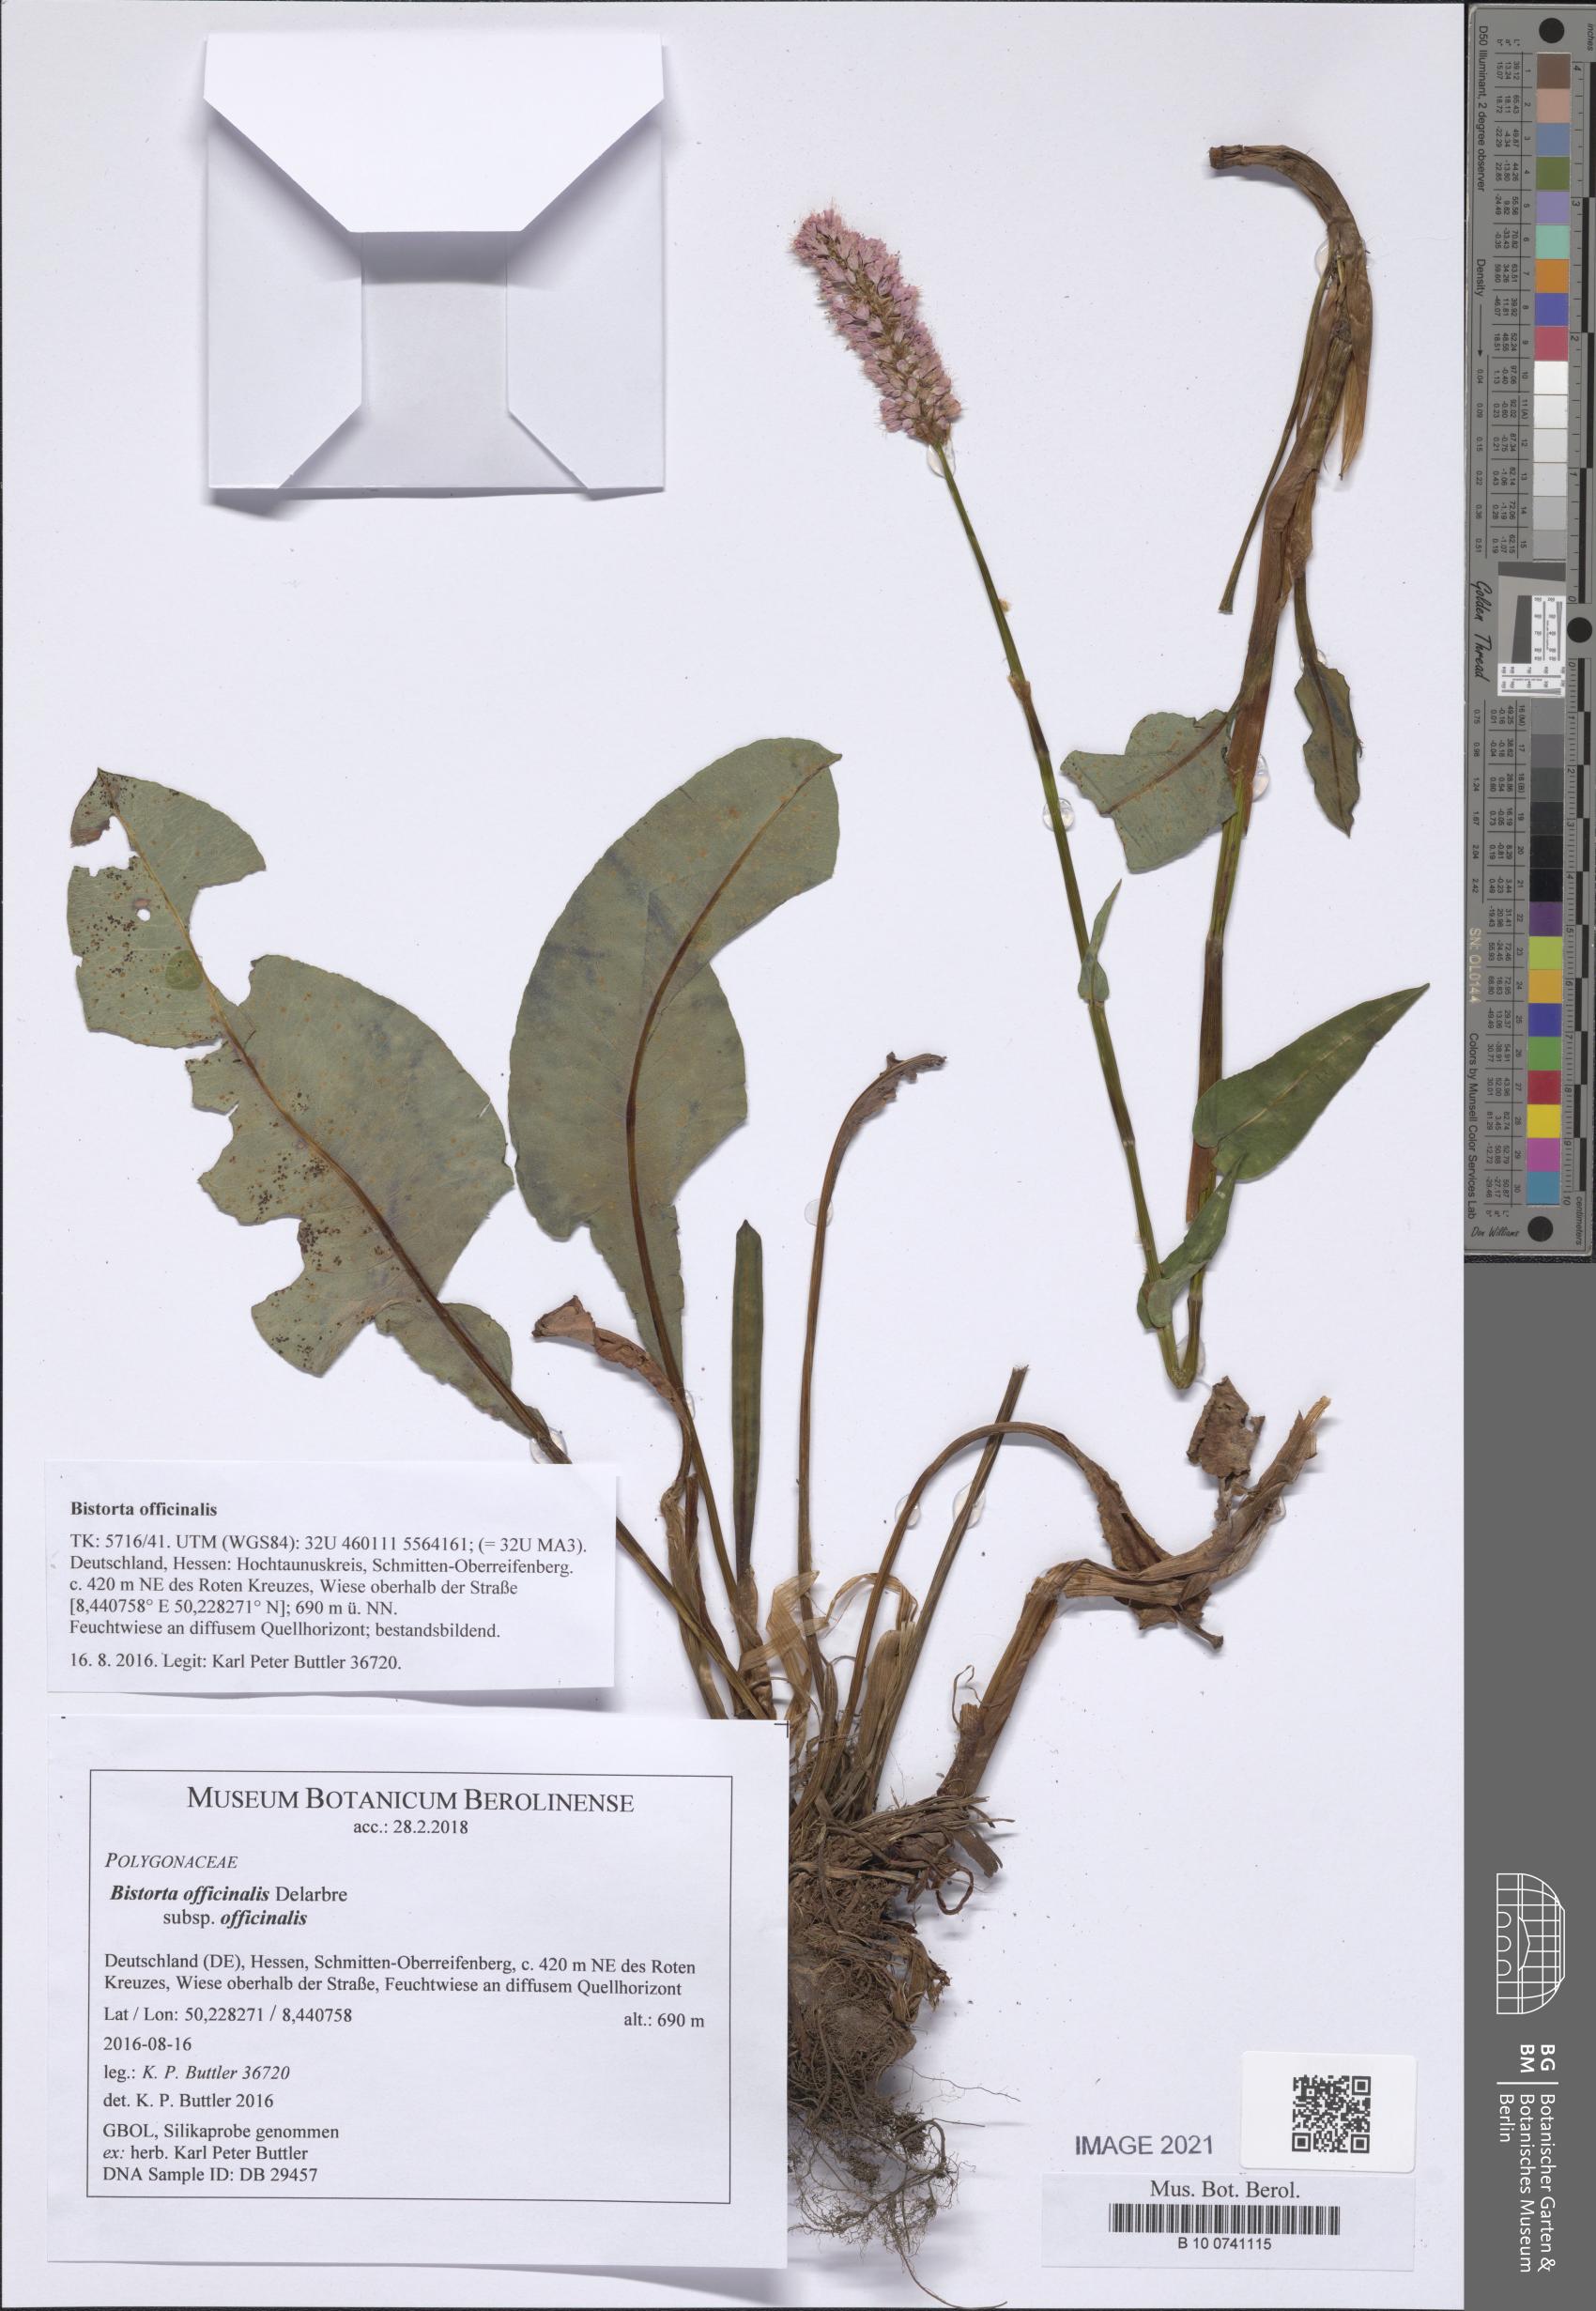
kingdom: Plantae
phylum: Tracheophyta
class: Magnoliopsida
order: Caryophyllales
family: Polygonaceae
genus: Bistorta
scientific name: Bistorta officinalis
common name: Common bistort
